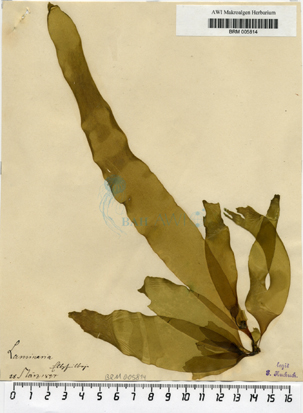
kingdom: Chromista
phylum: Ochrophyta
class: Phaeophyceae
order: Laminariales
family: Laminariaceae
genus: Laminaria
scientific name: Laminaria
